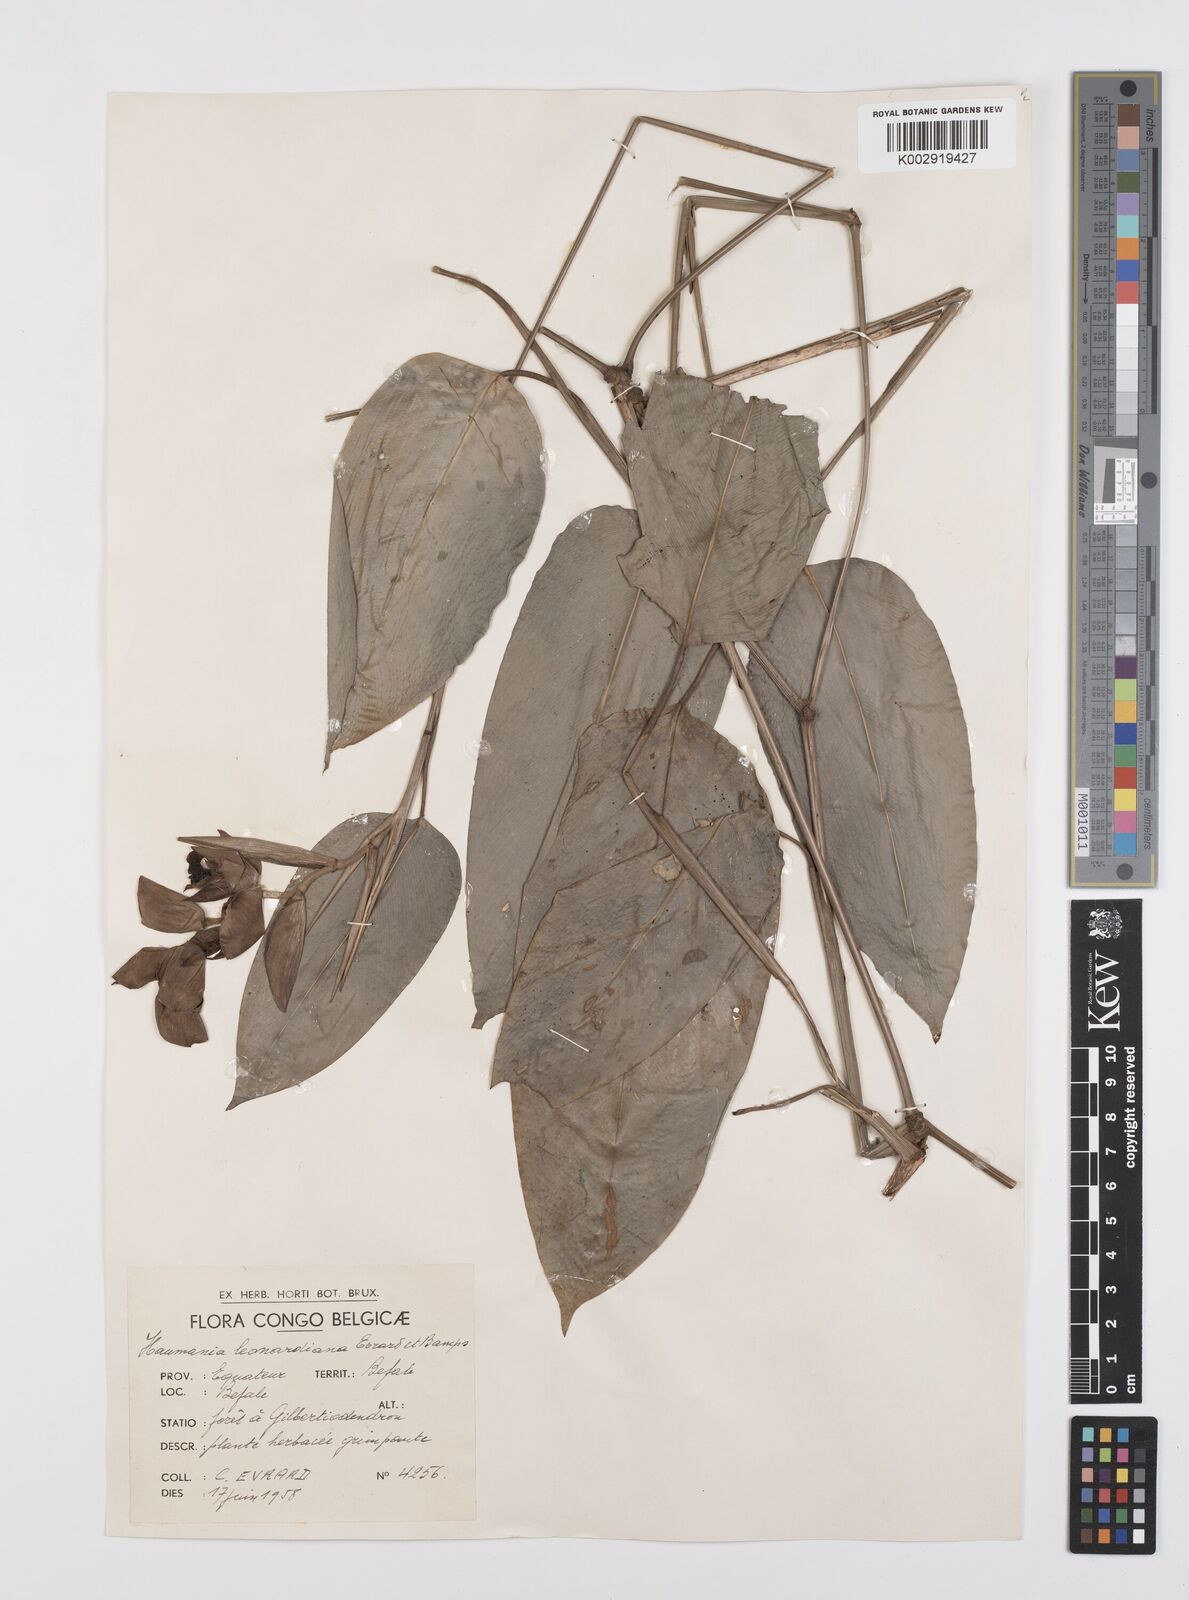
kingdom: Plantae
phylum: Tracheophyta
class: Liliopsida
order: Zingiberales
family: Marantaceae
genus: Haumania
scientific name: Haumania leonardiana
